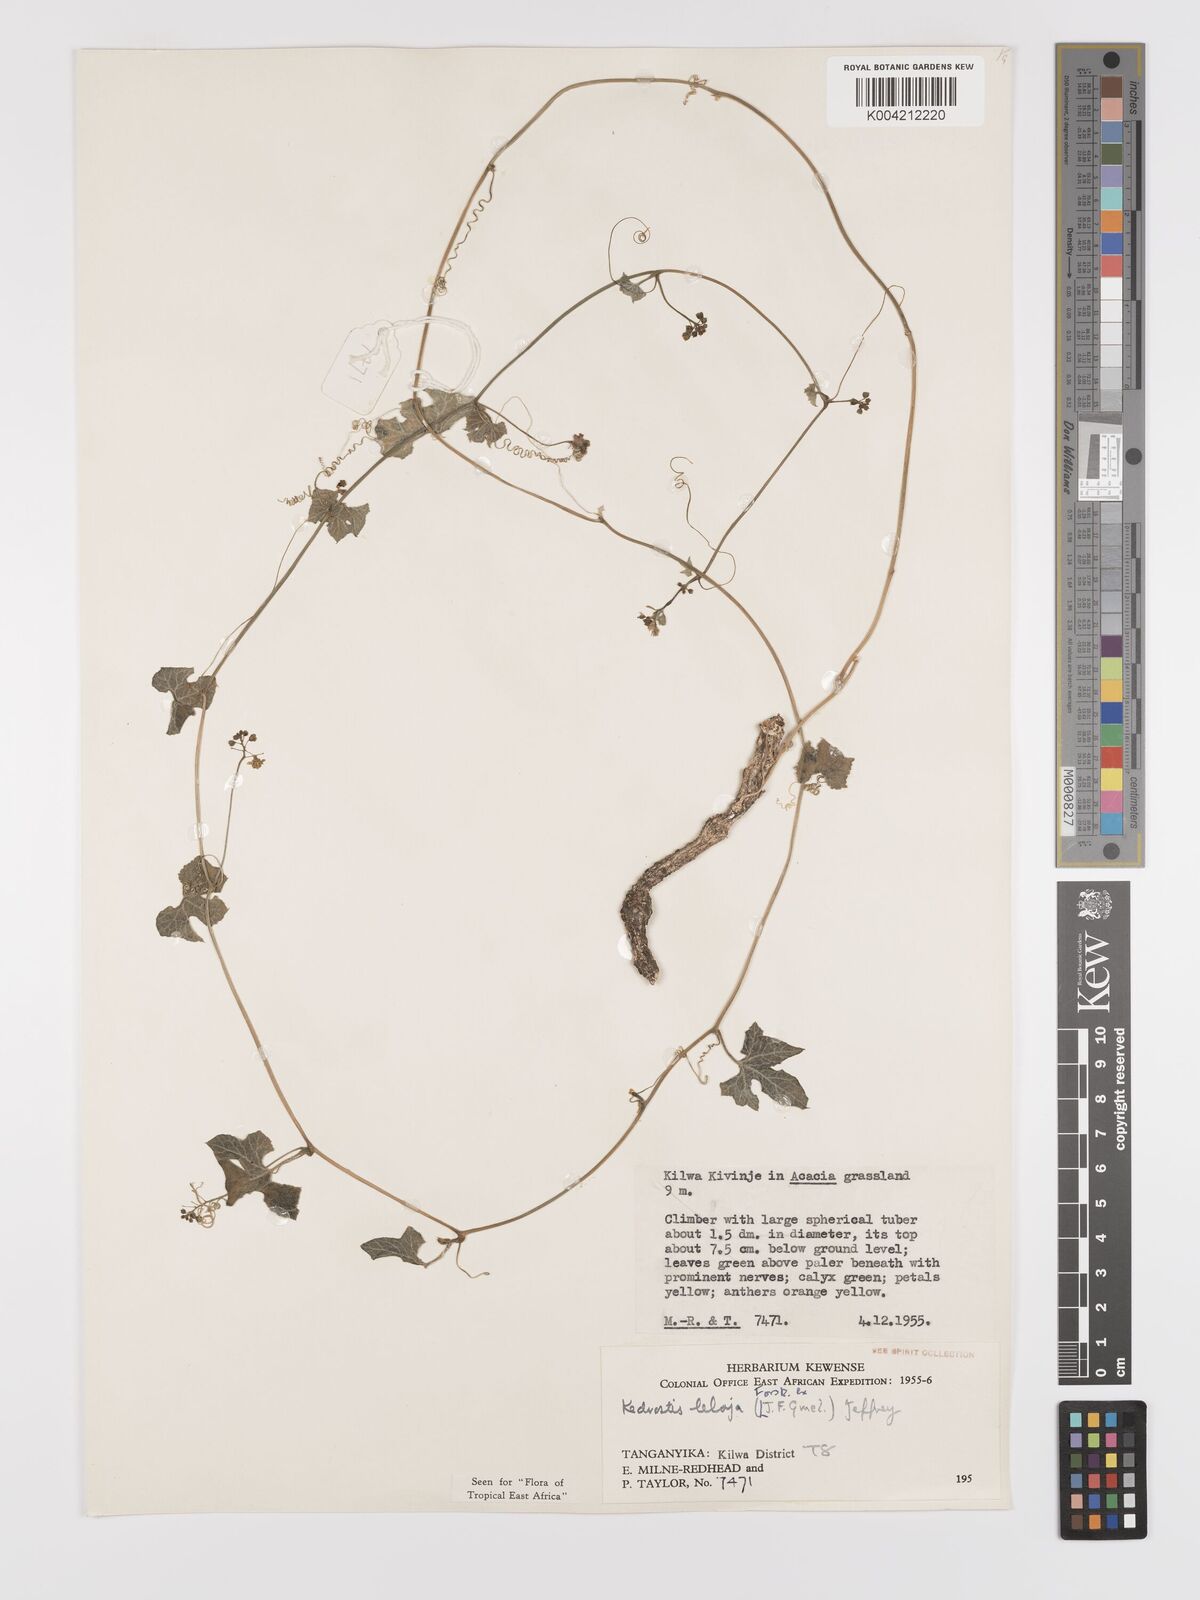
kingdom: Plantae
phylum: Tracheophyta
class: Magnoliopsida
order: Cucurbitales
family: Cucurbitaceae
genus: Kedrostis
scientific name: Kedrostis abdallae
